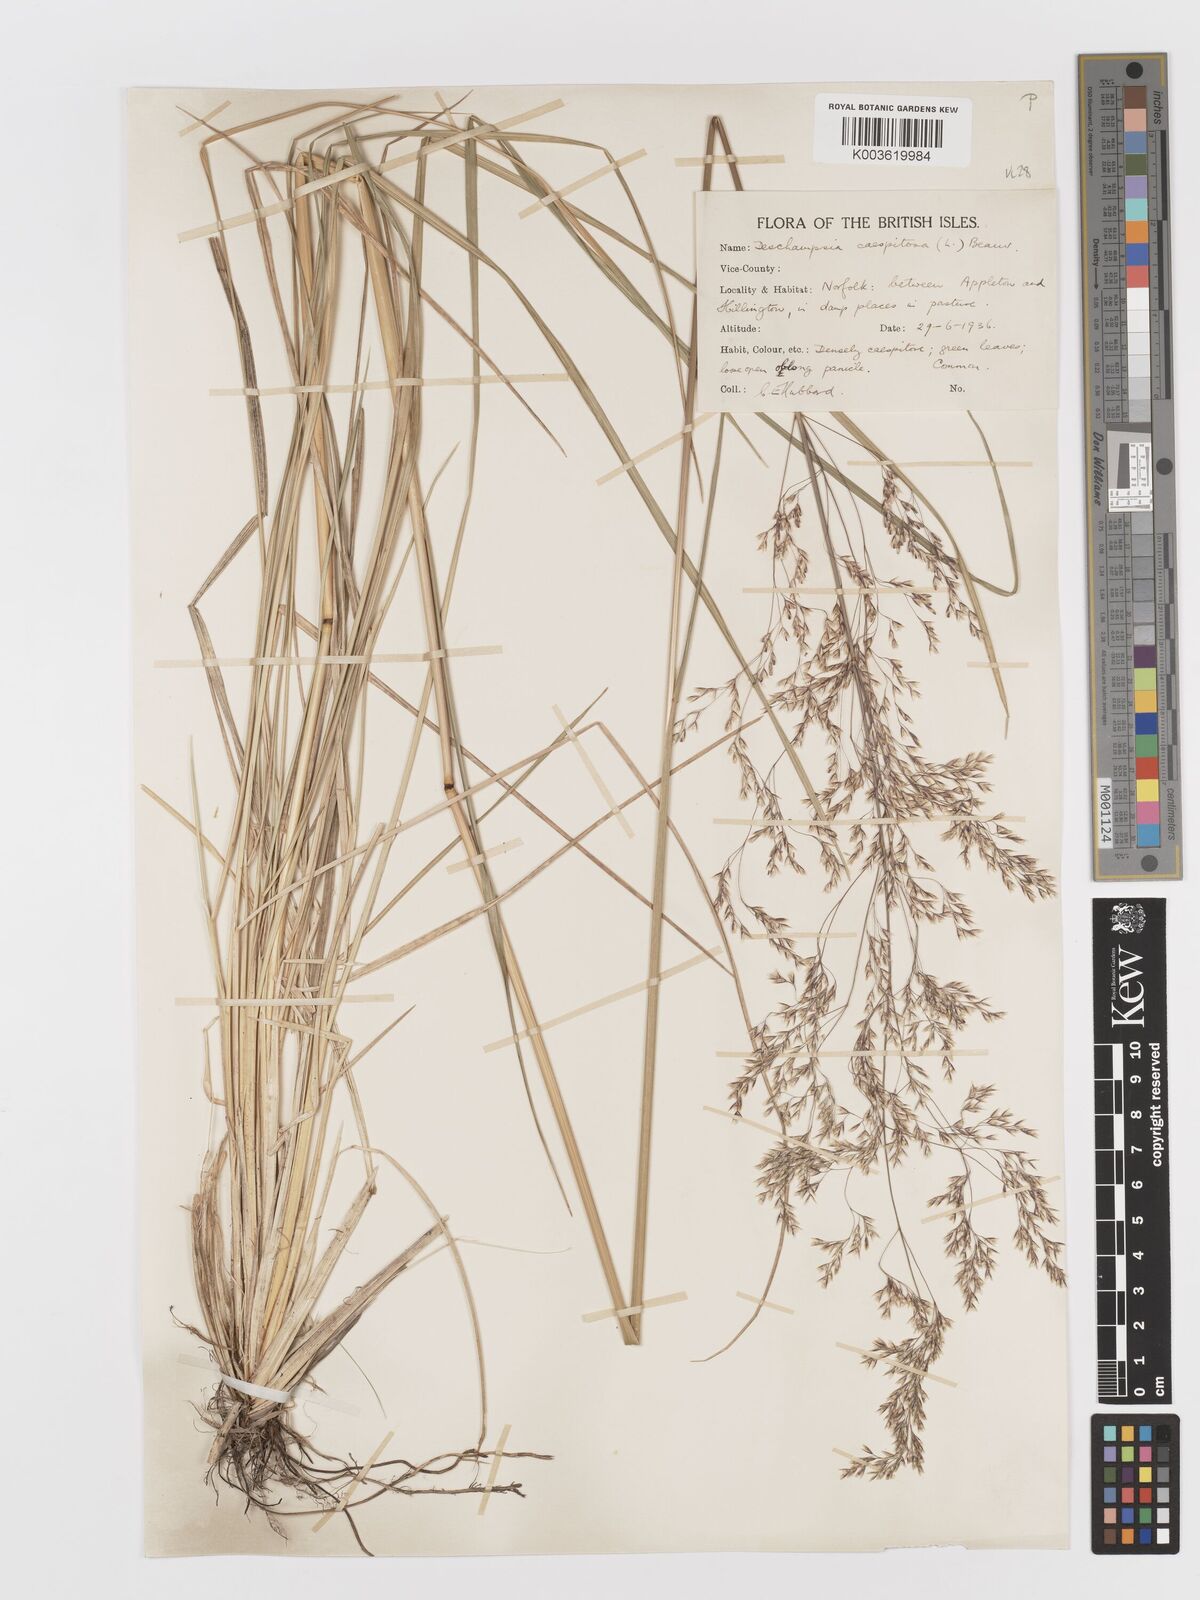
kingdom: Plantae
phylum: Tracheophyta
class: Liliopsida
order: Poales
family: Poaceae
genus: Deschampsia
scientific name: Deschampsia cespitosa
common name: Tufted hair-grass
